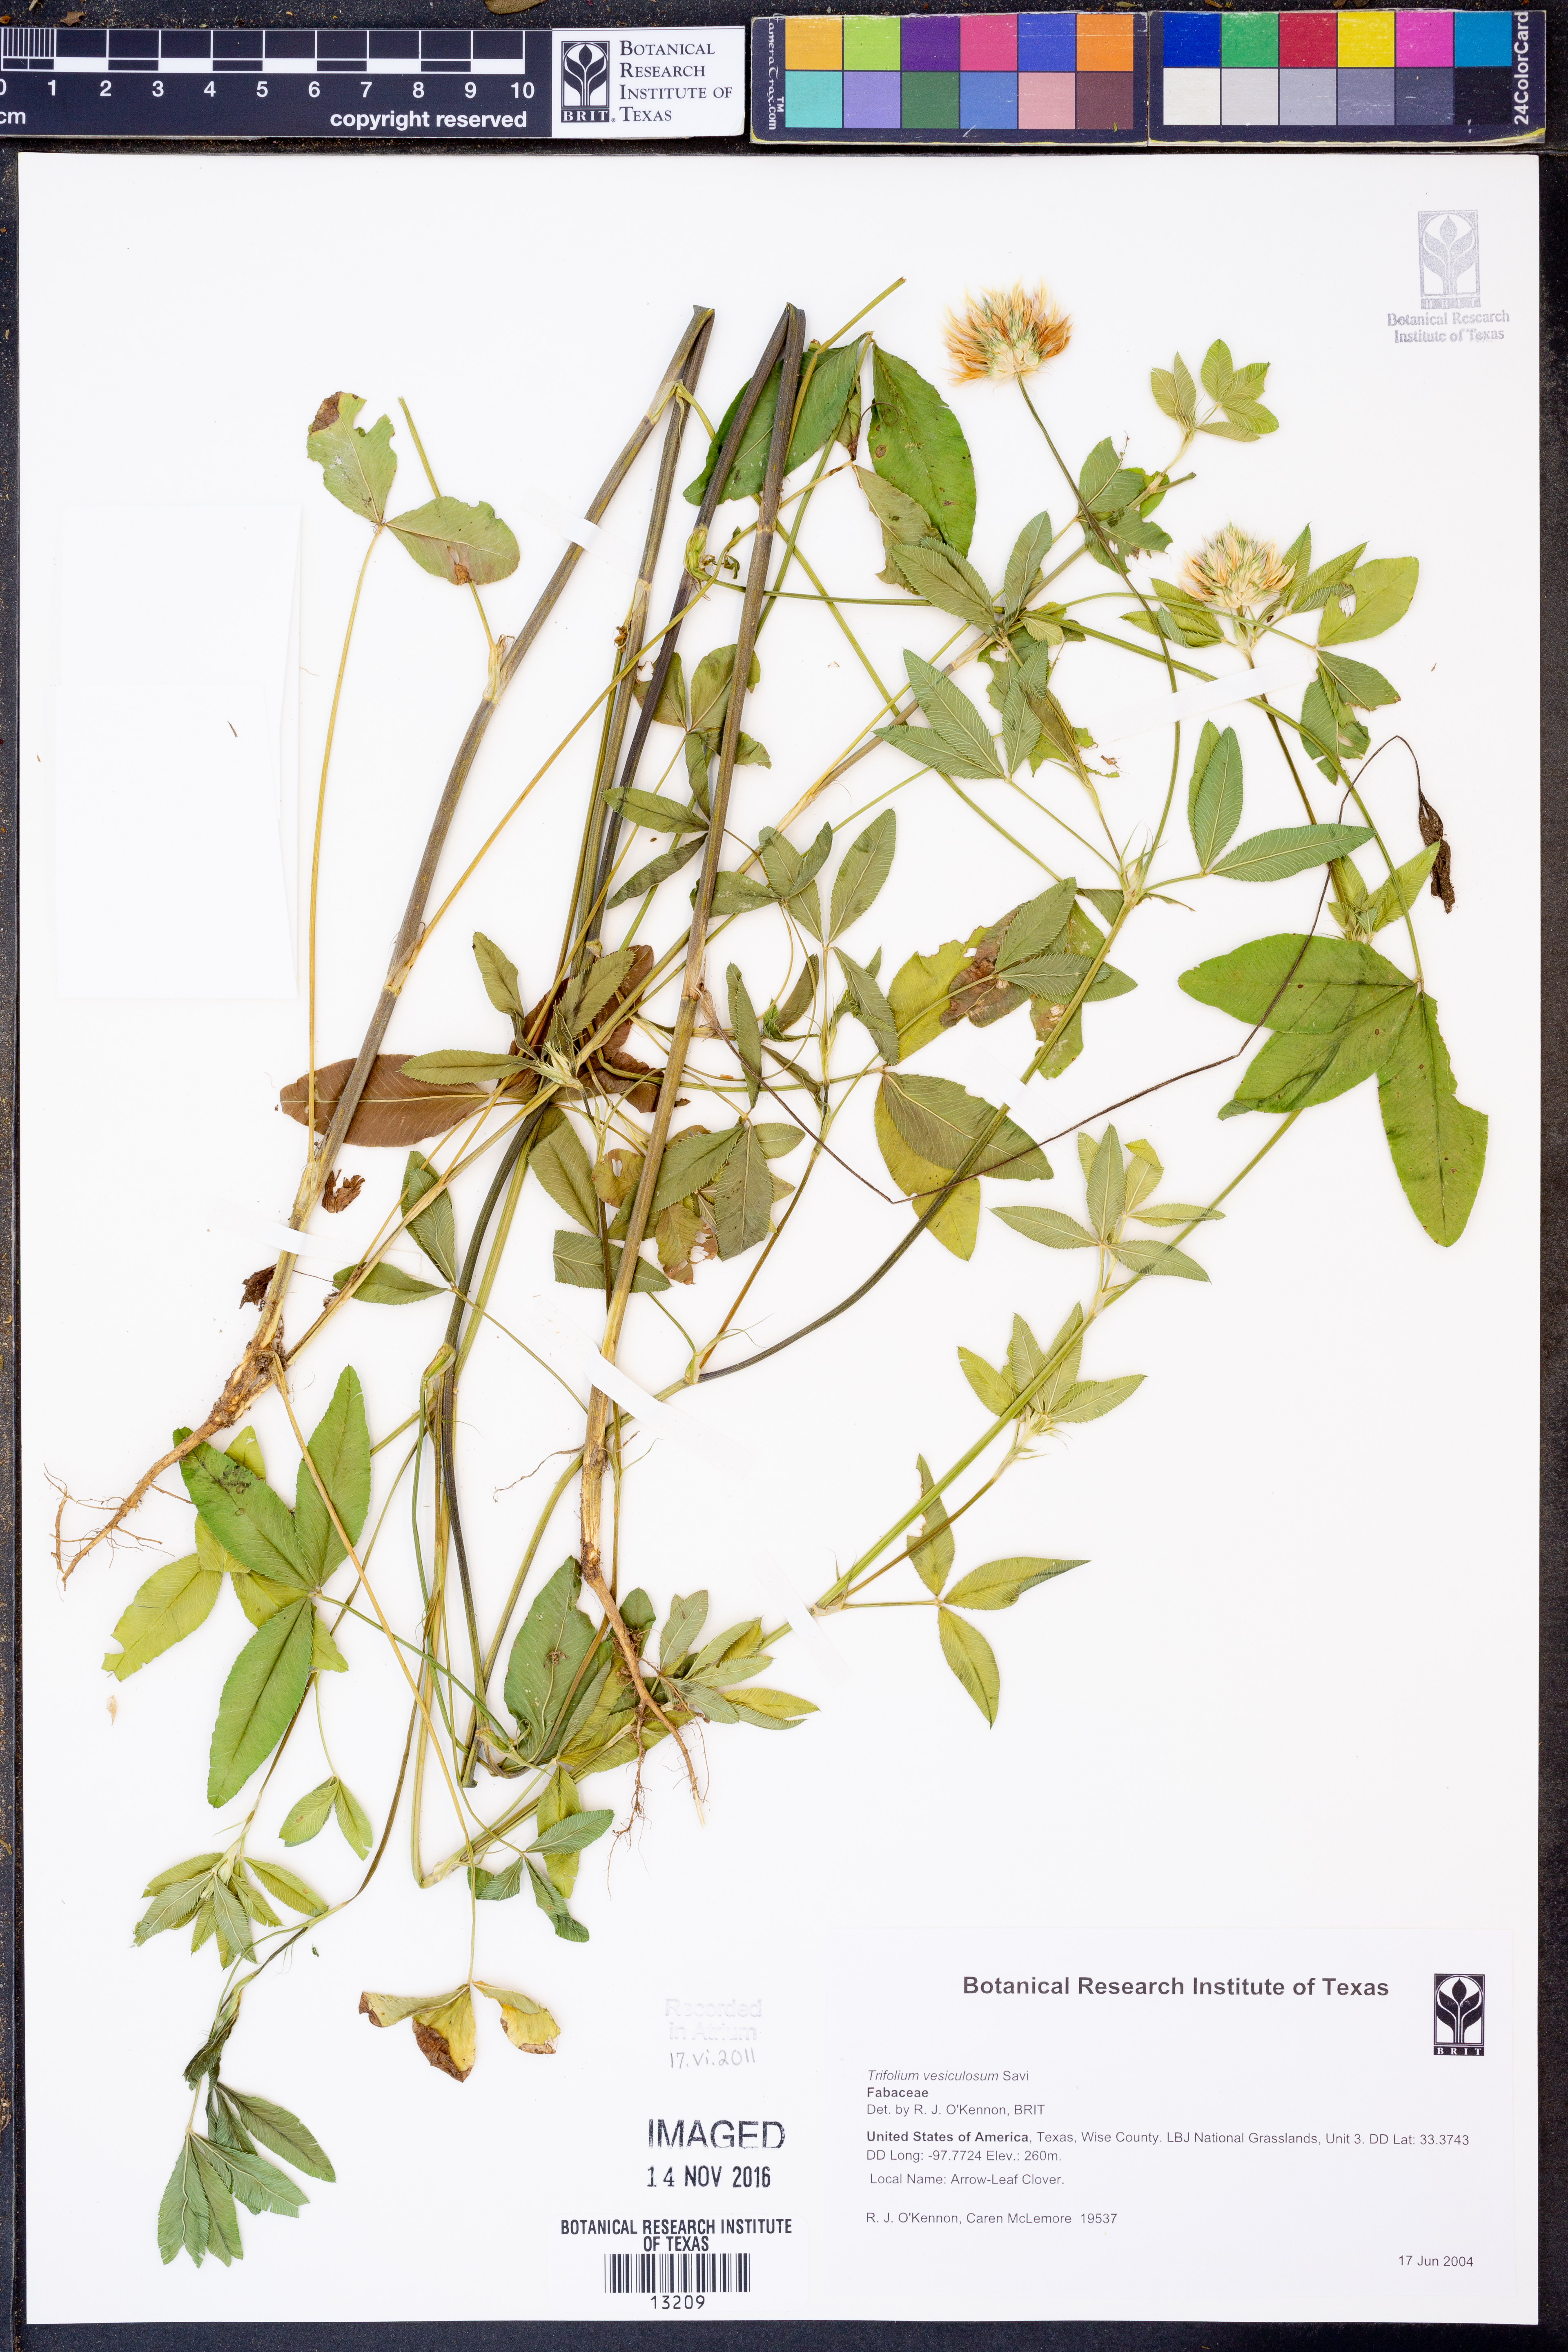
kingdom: Plantae
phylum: Tracheophyta
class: Magnoliopsida
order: Fabales
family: Fabaceae
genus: Trifolium
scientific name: Trifolium vesiculosum
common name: Arrowleaf clover
